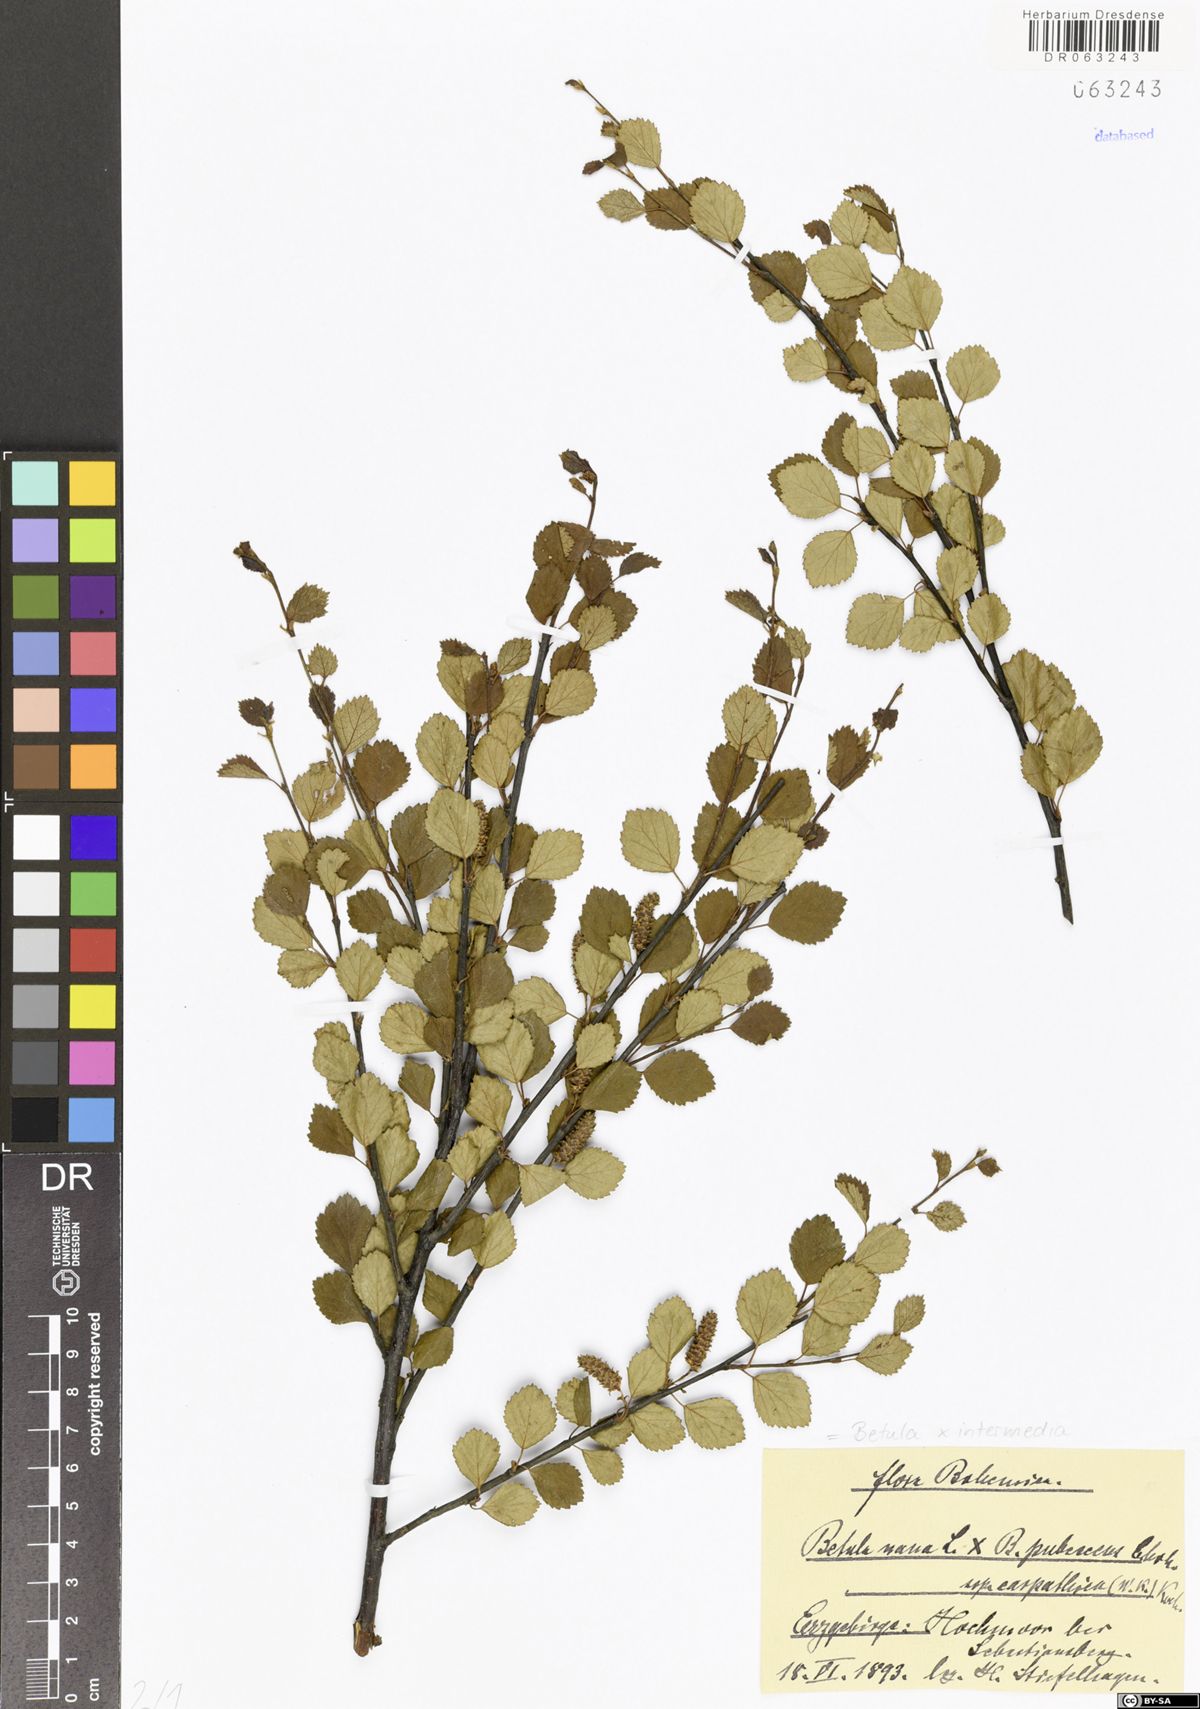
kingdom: Plantae
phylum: Tracheophyta
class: Magnoliopsida
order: Fagales
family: Betulaceae
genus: Betula
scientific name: Betula intermedia
